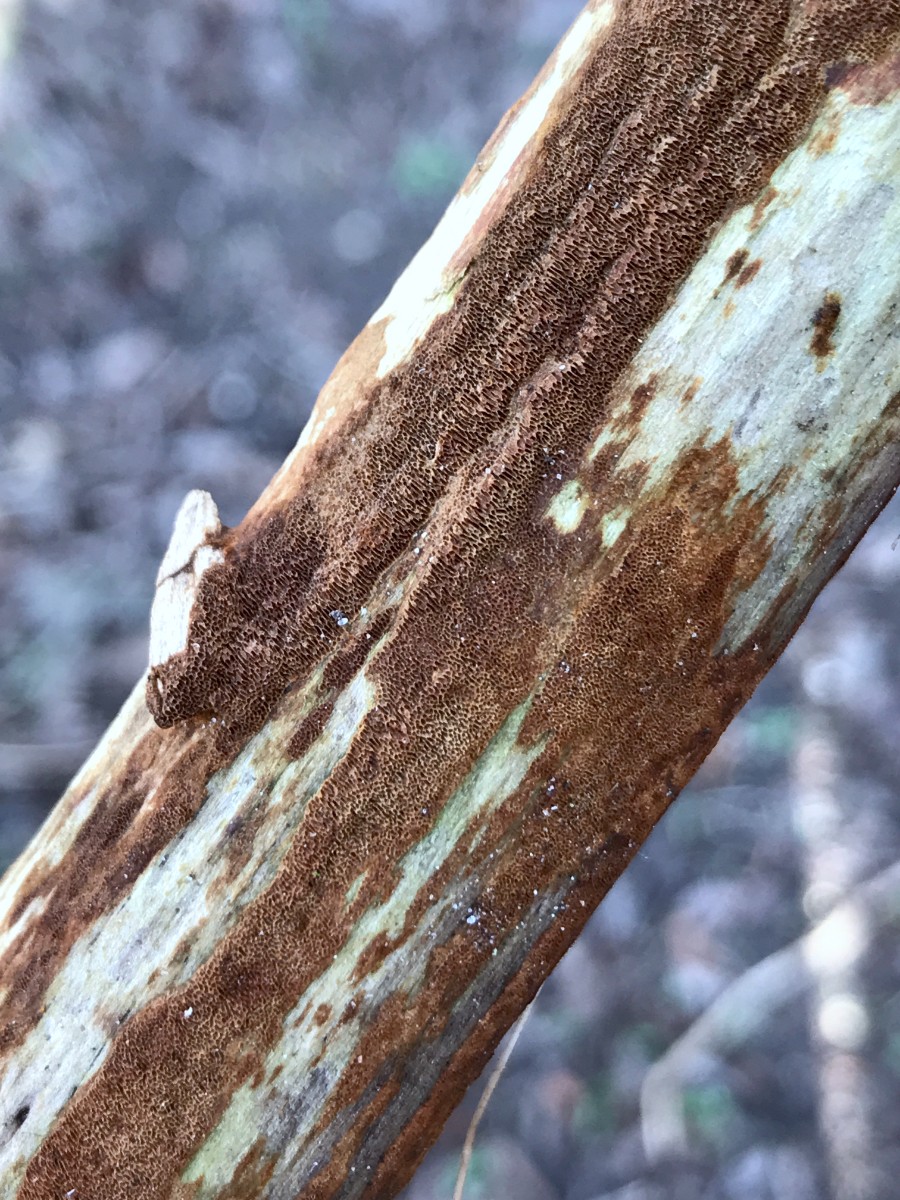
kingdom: Fungi
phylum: Basidiomycota
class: Agaricomycetes
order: Hymenochaetales
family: Hymenochaetaceae
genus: Fuscoporia
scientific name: Fuscoporia
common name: Ildporesvamp
